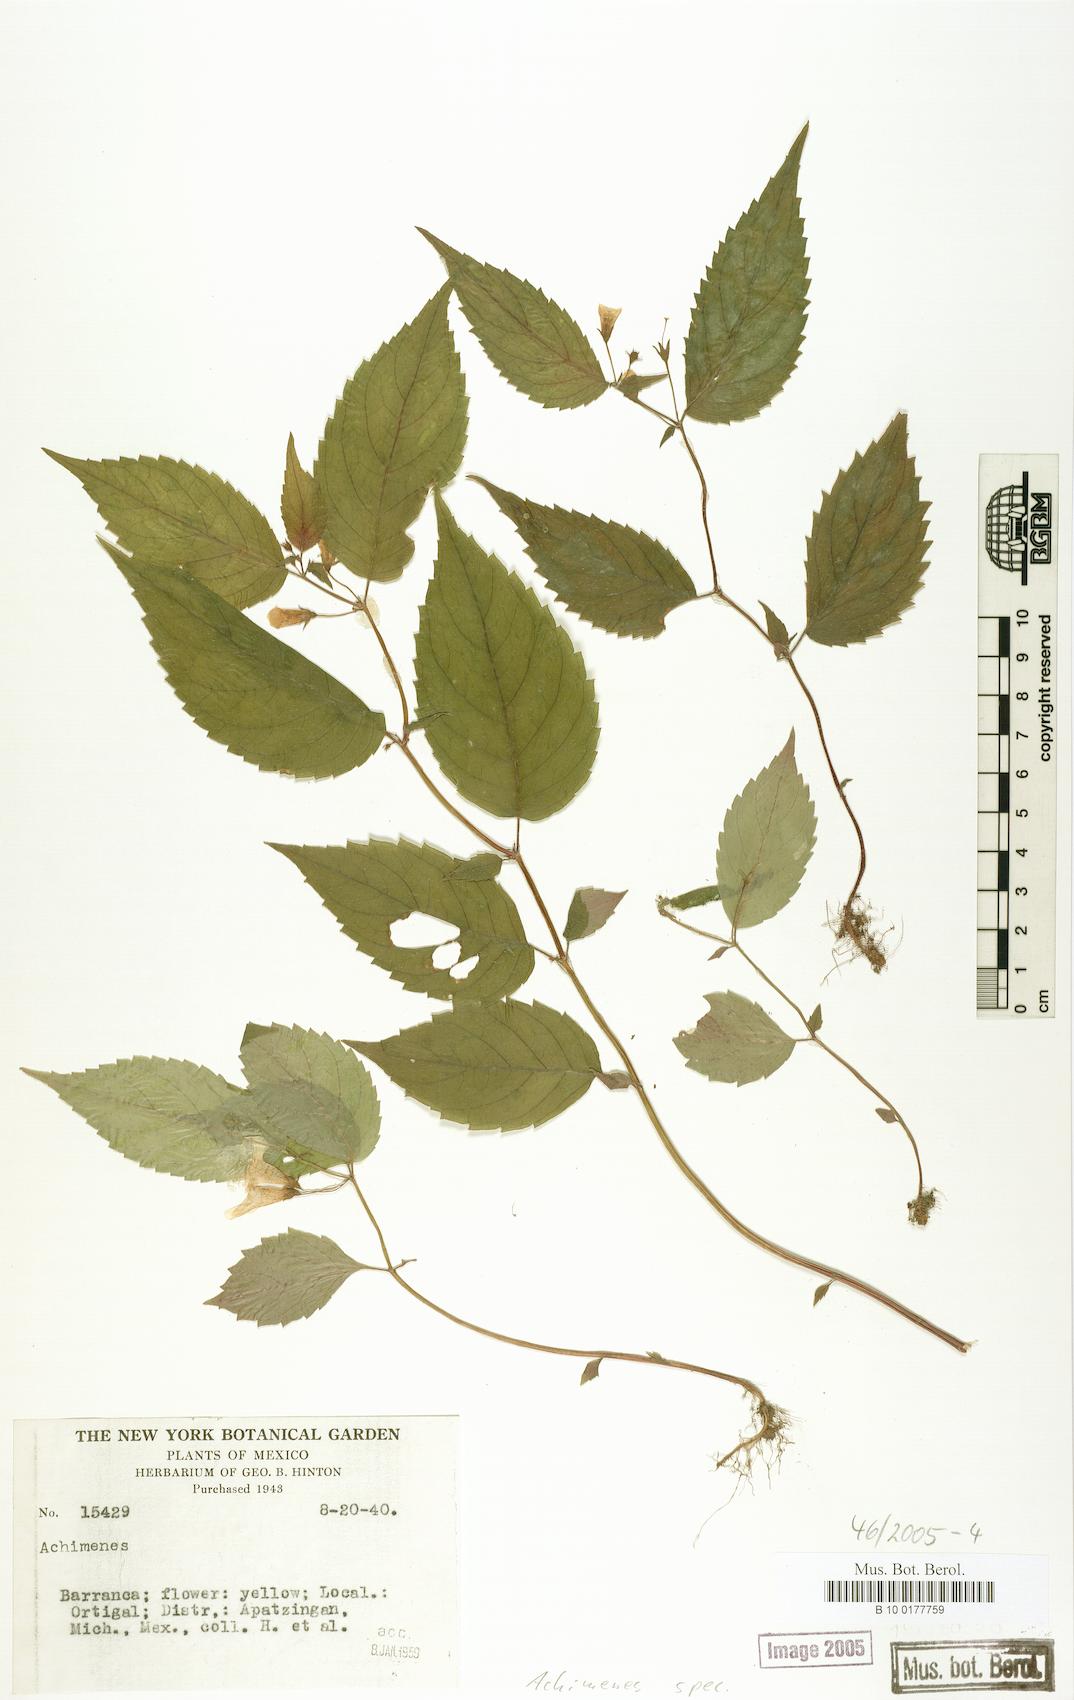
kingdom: Plantae
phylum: Tracheophyta
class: Magnoliopsida
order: Lamiales
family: Gesneriaceae
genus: Achimenes
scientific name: Achimenes
